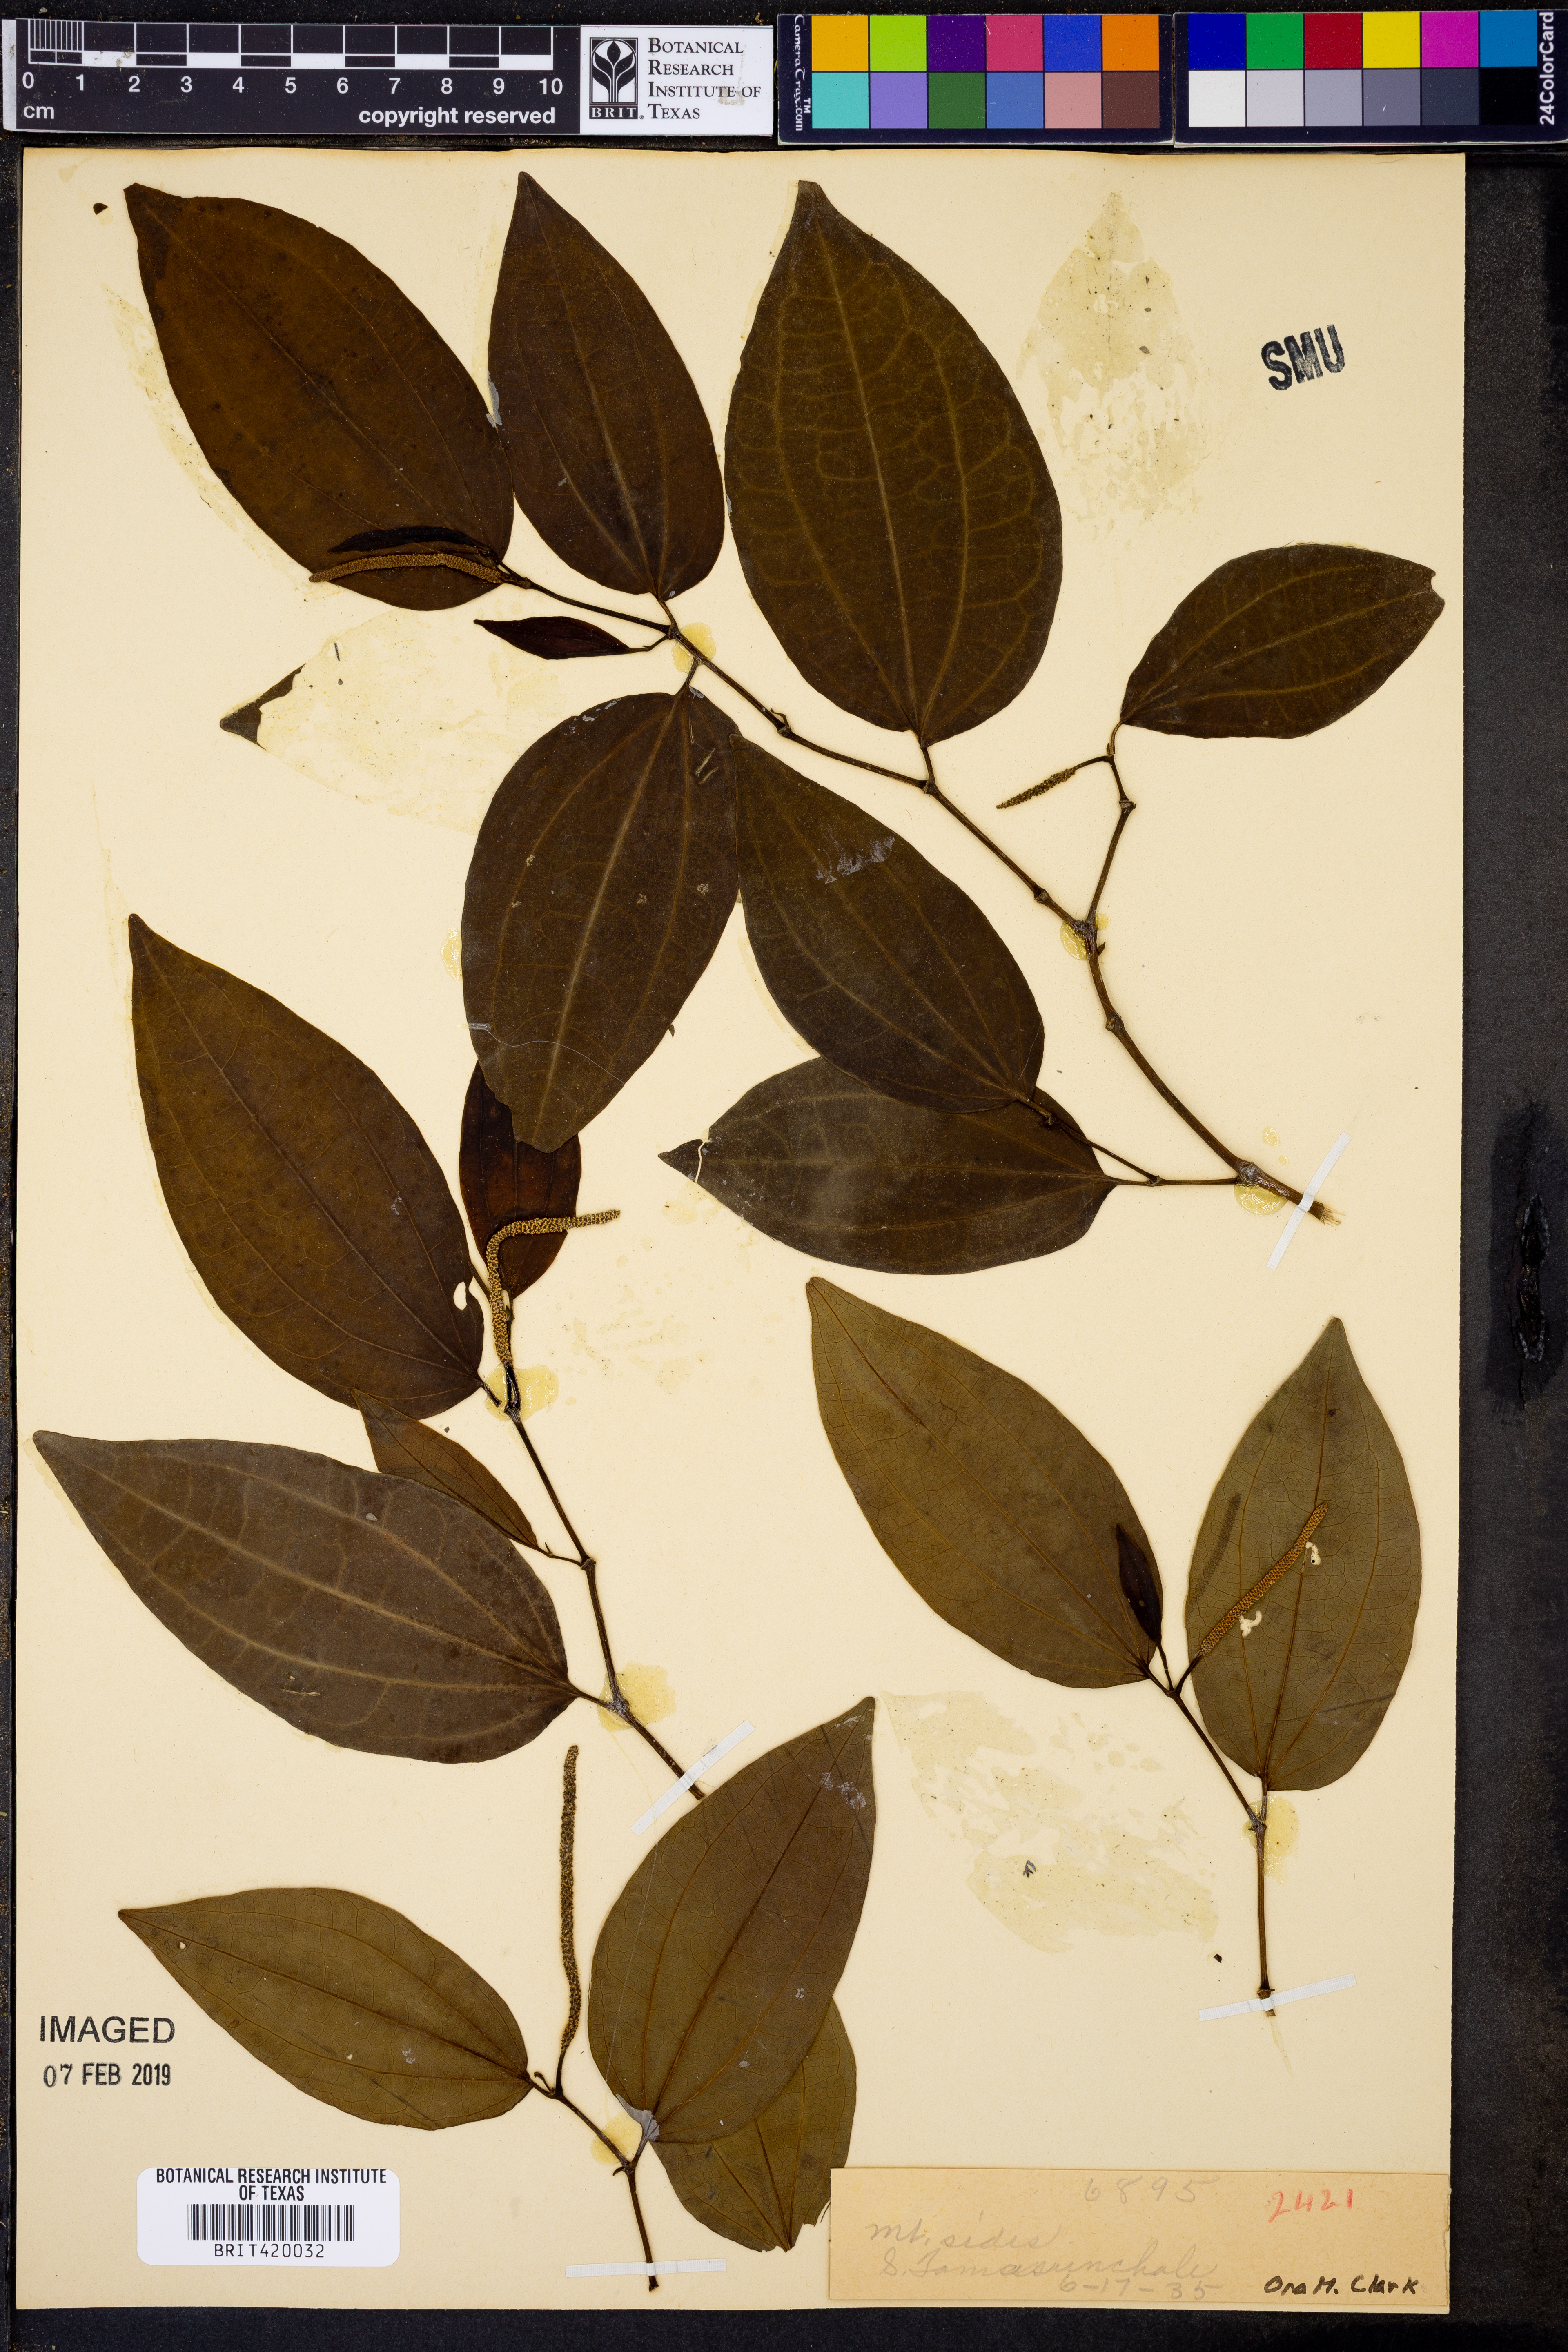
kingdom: Plantae
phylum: Tracheophyta
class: Magnoliopsida
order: Piperales
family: Piperaceae
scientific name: Piperaceae
